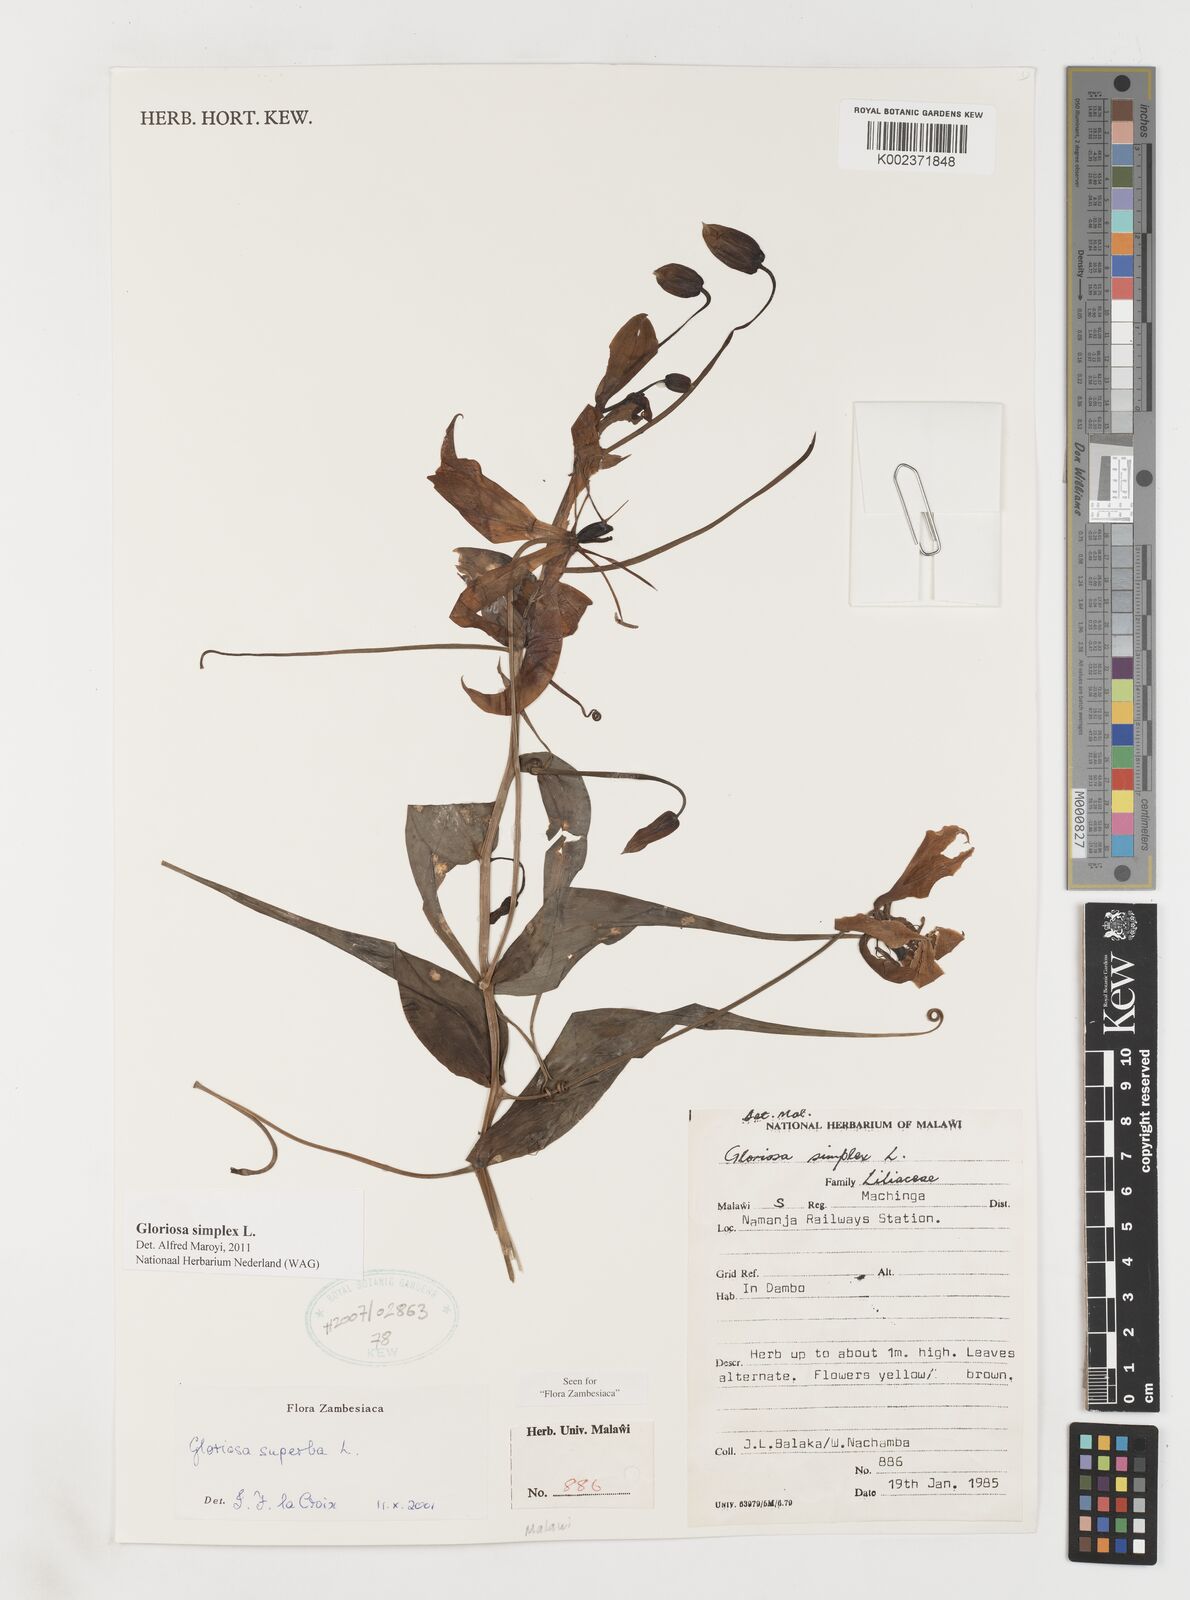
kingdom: Plantae
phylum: Tracheophyta
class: Liliopsida
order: Liliales
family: Colchicaceae
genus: Gloriosa
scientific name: Gloriosa simplex
